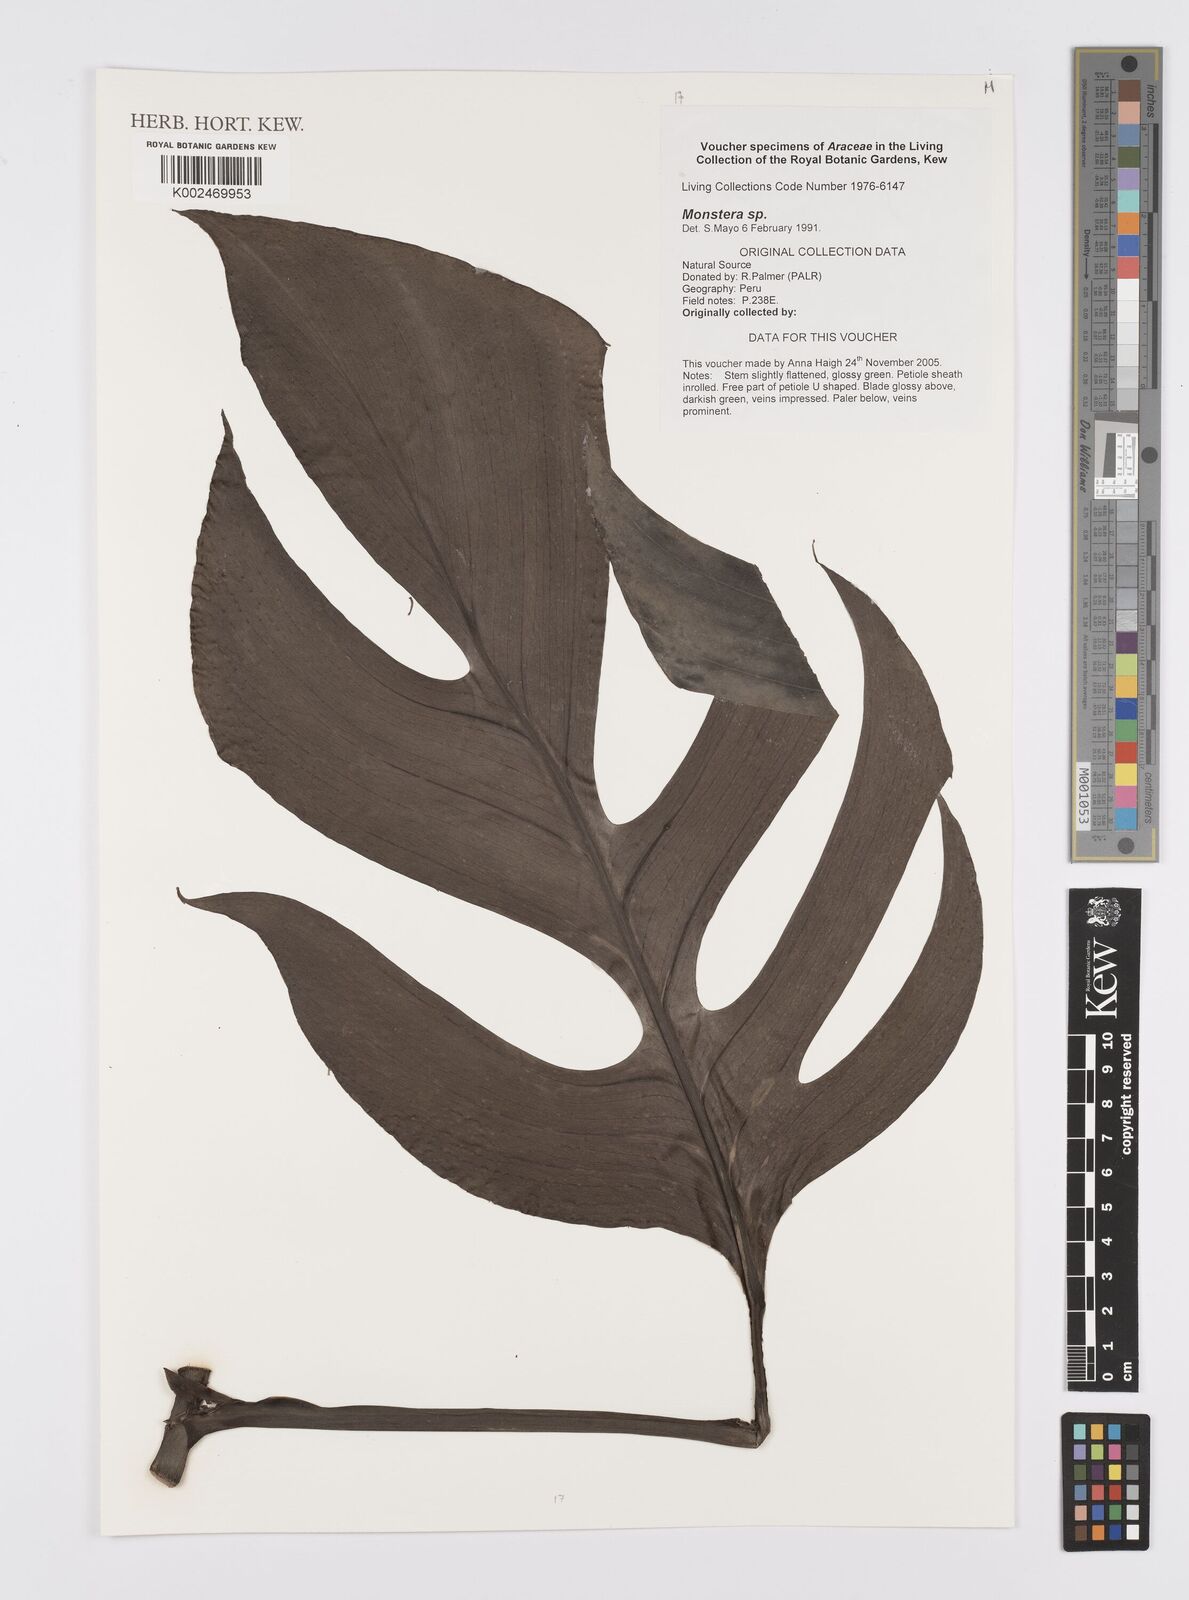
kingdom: Plantae
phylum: Tracheophyta
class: Liliopsida
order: Alismatales
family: Araceae
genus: Monstera
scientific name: Monstera
